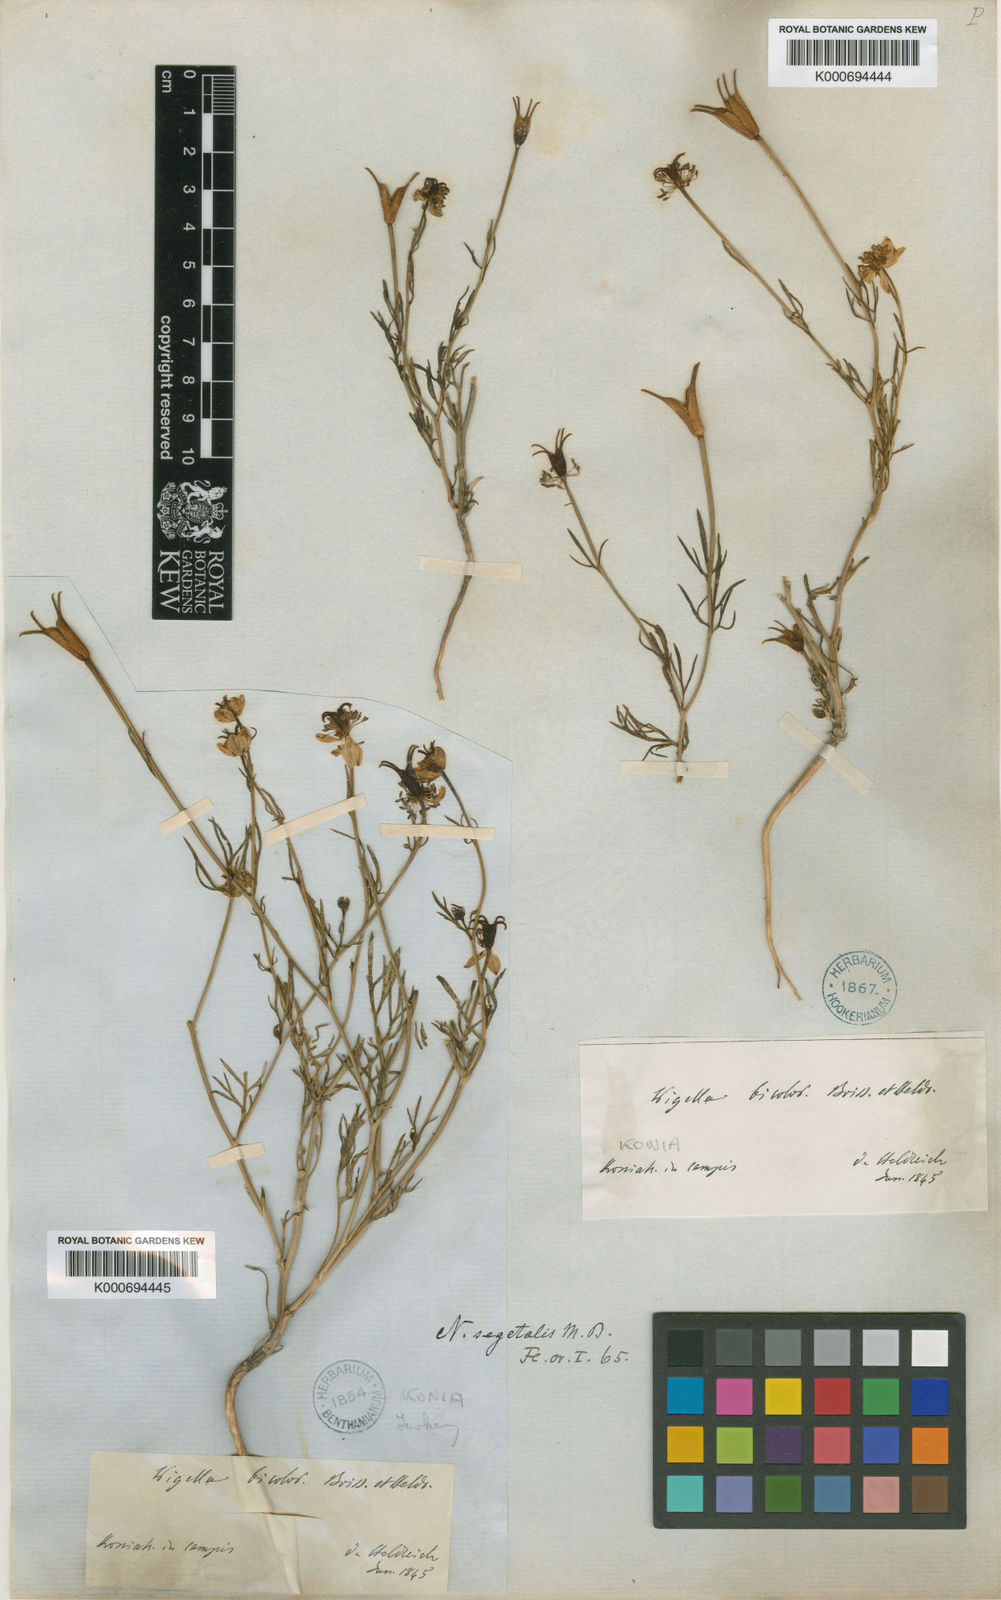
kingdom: Plantae
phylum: Tracheophyta
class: Magnoliopsida
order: Ranunculales
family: Ranunculaceae
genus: Nigella
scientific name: Nigella segetalis
